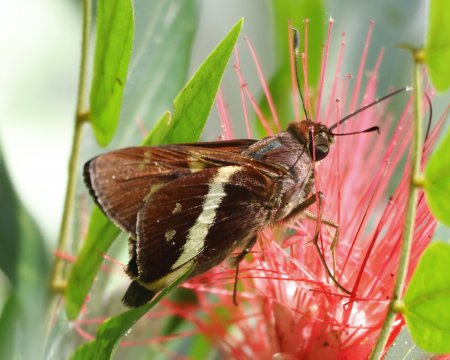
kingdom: Animalia
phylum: Arthropoda
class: Insecta
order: Lepidoptera
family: Hesperiidae
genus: Xeniades
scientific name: Xeniades chalestra
